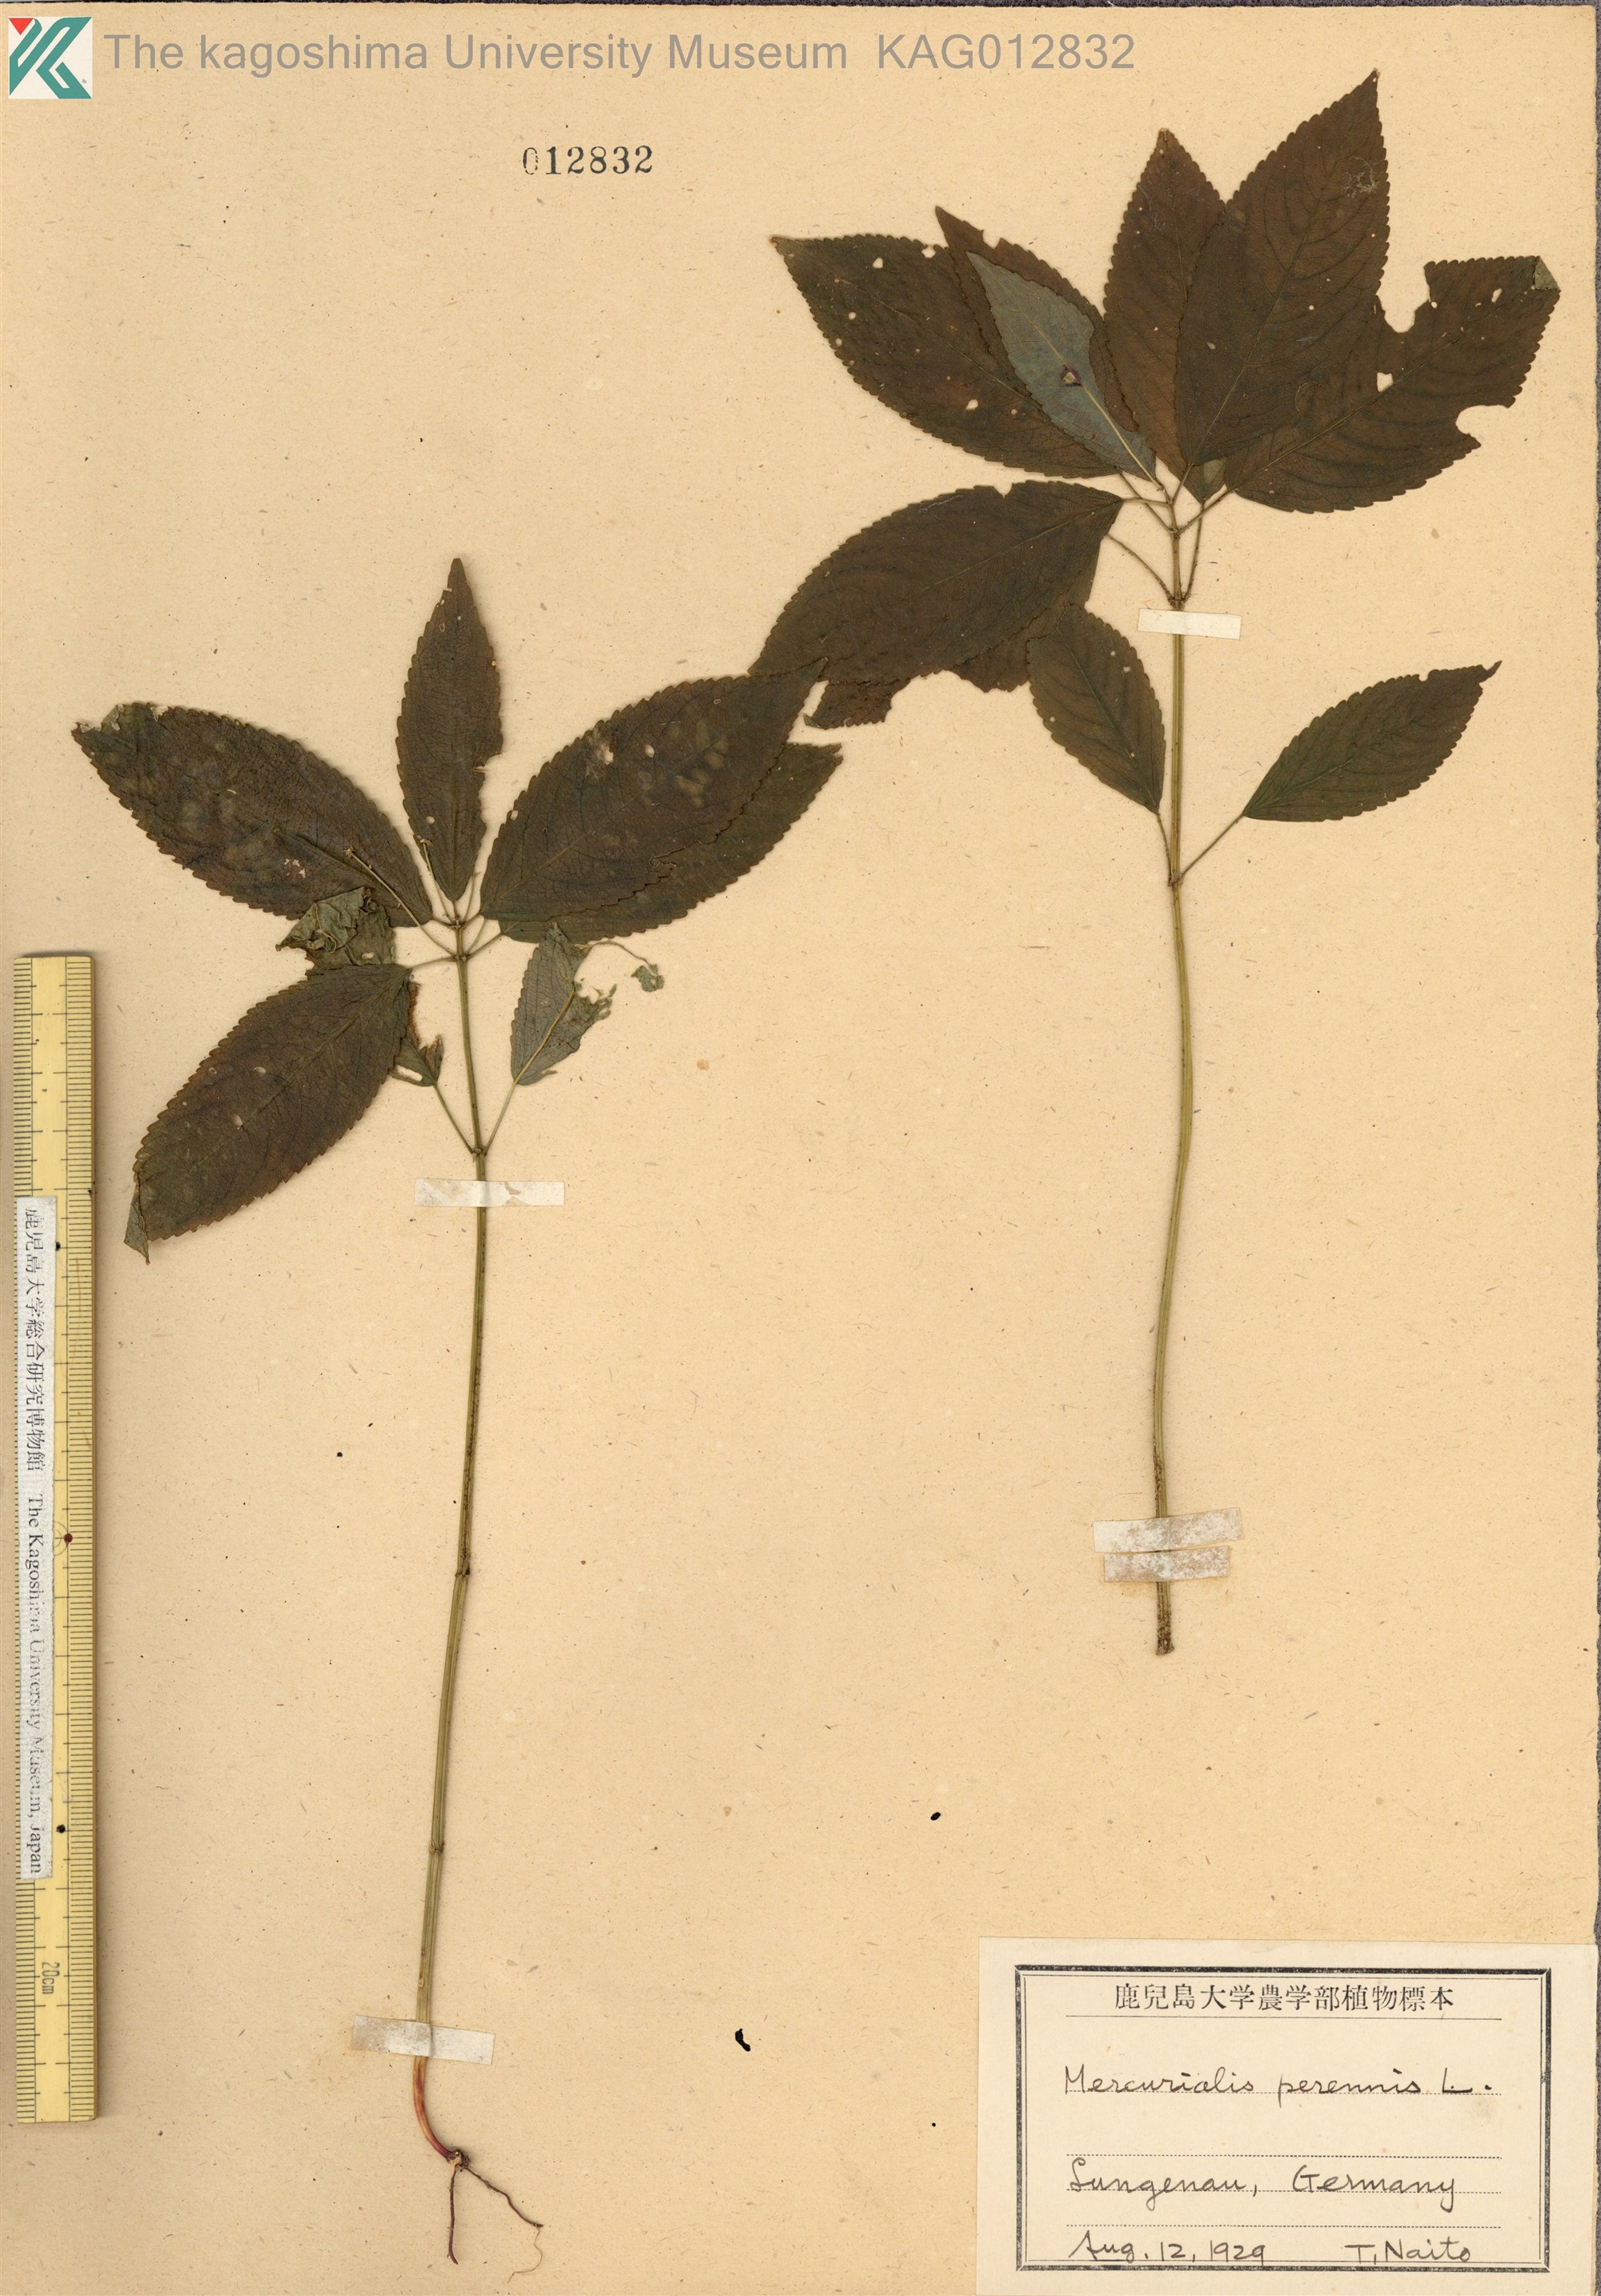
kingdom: Plantae
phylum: Tracheophyta
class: Magnoliopsida
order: Malpighiales
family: Euphorbiaceae
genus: Mercurialis
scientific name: Mercurialis perennis
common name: Dog mercury
